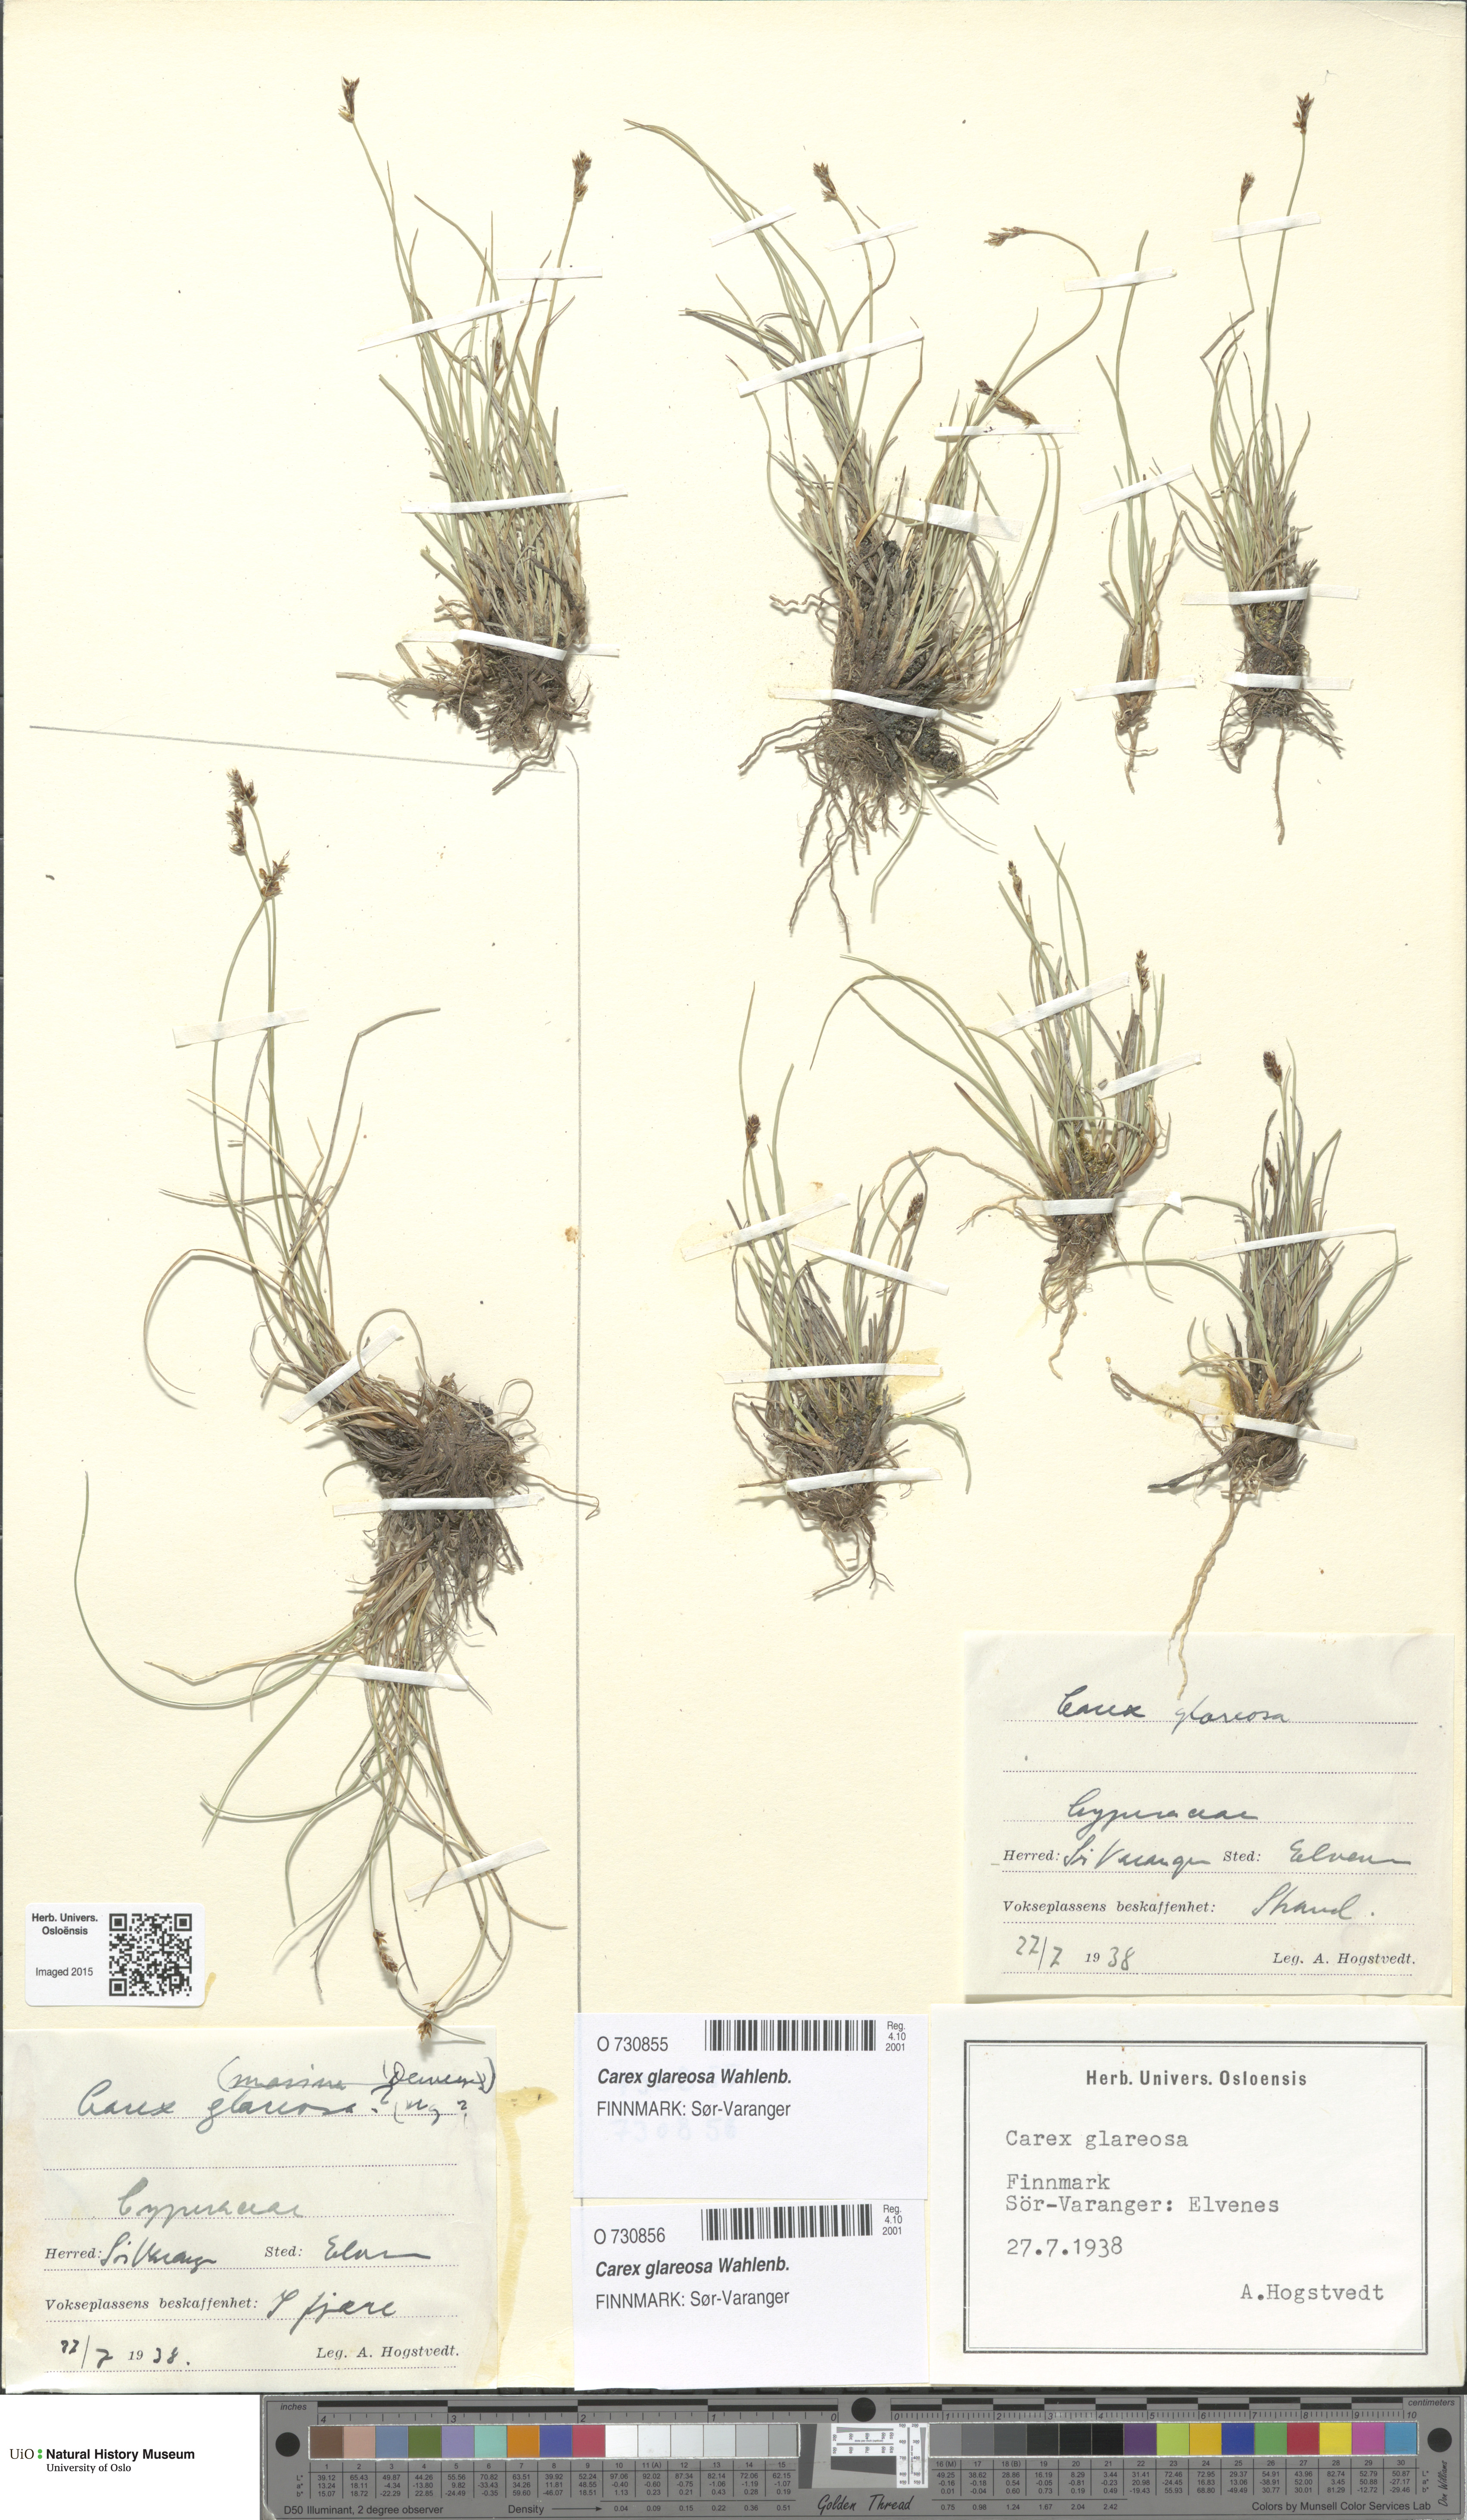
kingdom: Plantae
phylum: Tracheophyta
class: Liliopsida
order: Poales
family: Cyperaceae
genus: Carex
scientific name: Carex glareosa
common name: Clustered sedge
